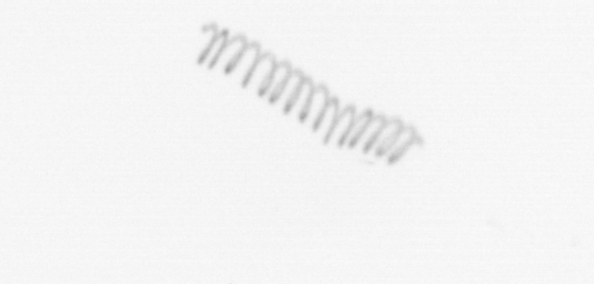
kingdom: Chromista
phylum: Ochrophyta
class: Bacillariophyceae
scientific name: Bacillariophyceae
